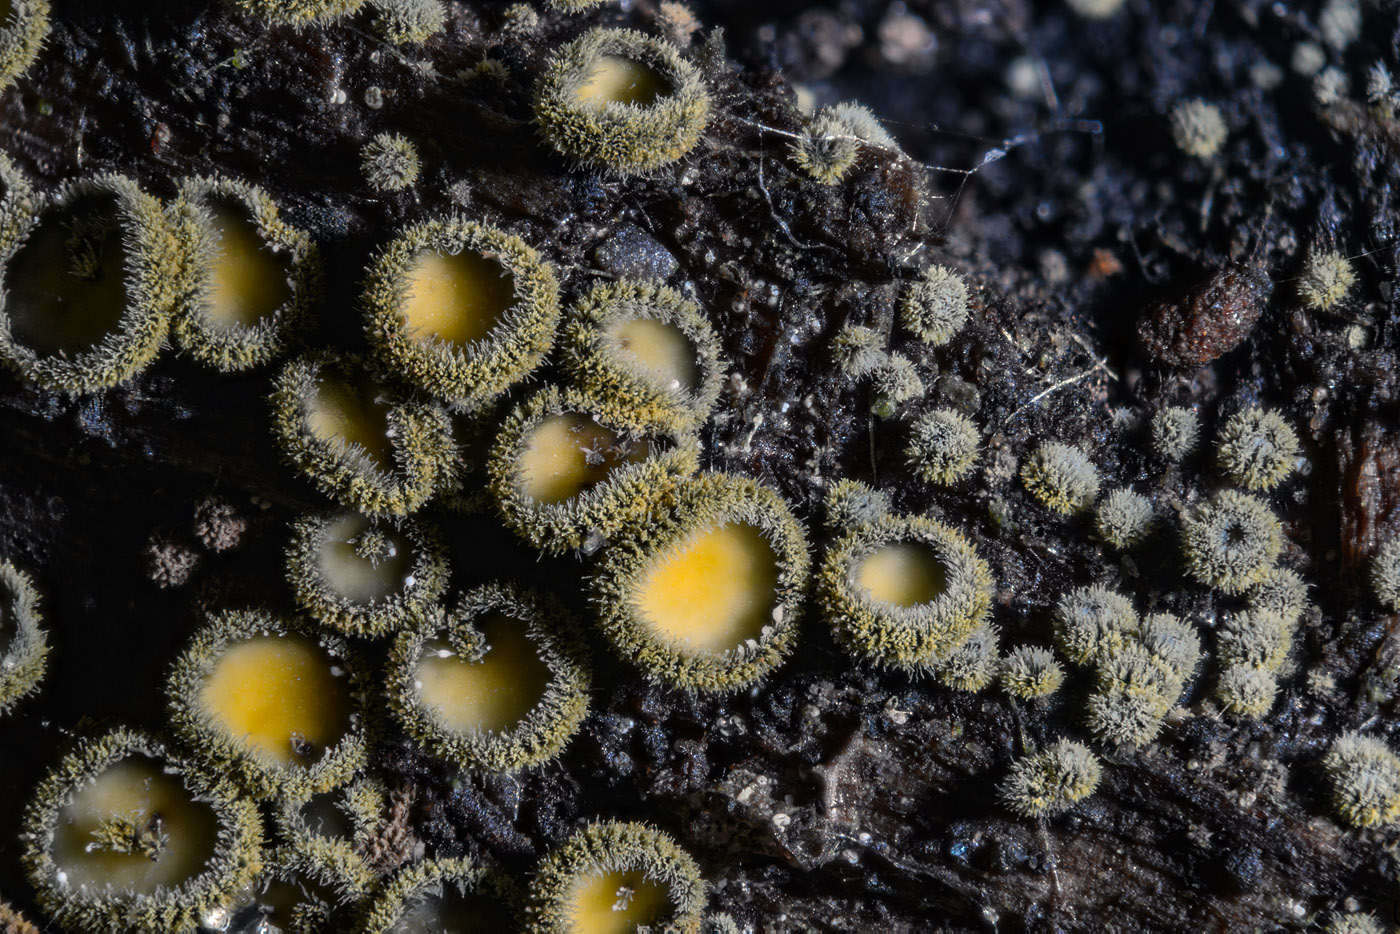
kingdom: Fungi
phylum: Ascomycota
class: Leotiomycetes
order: Helotiales
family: Lachnaceae
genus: Neodasyscypha
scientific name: Neodasyscypha cerina
